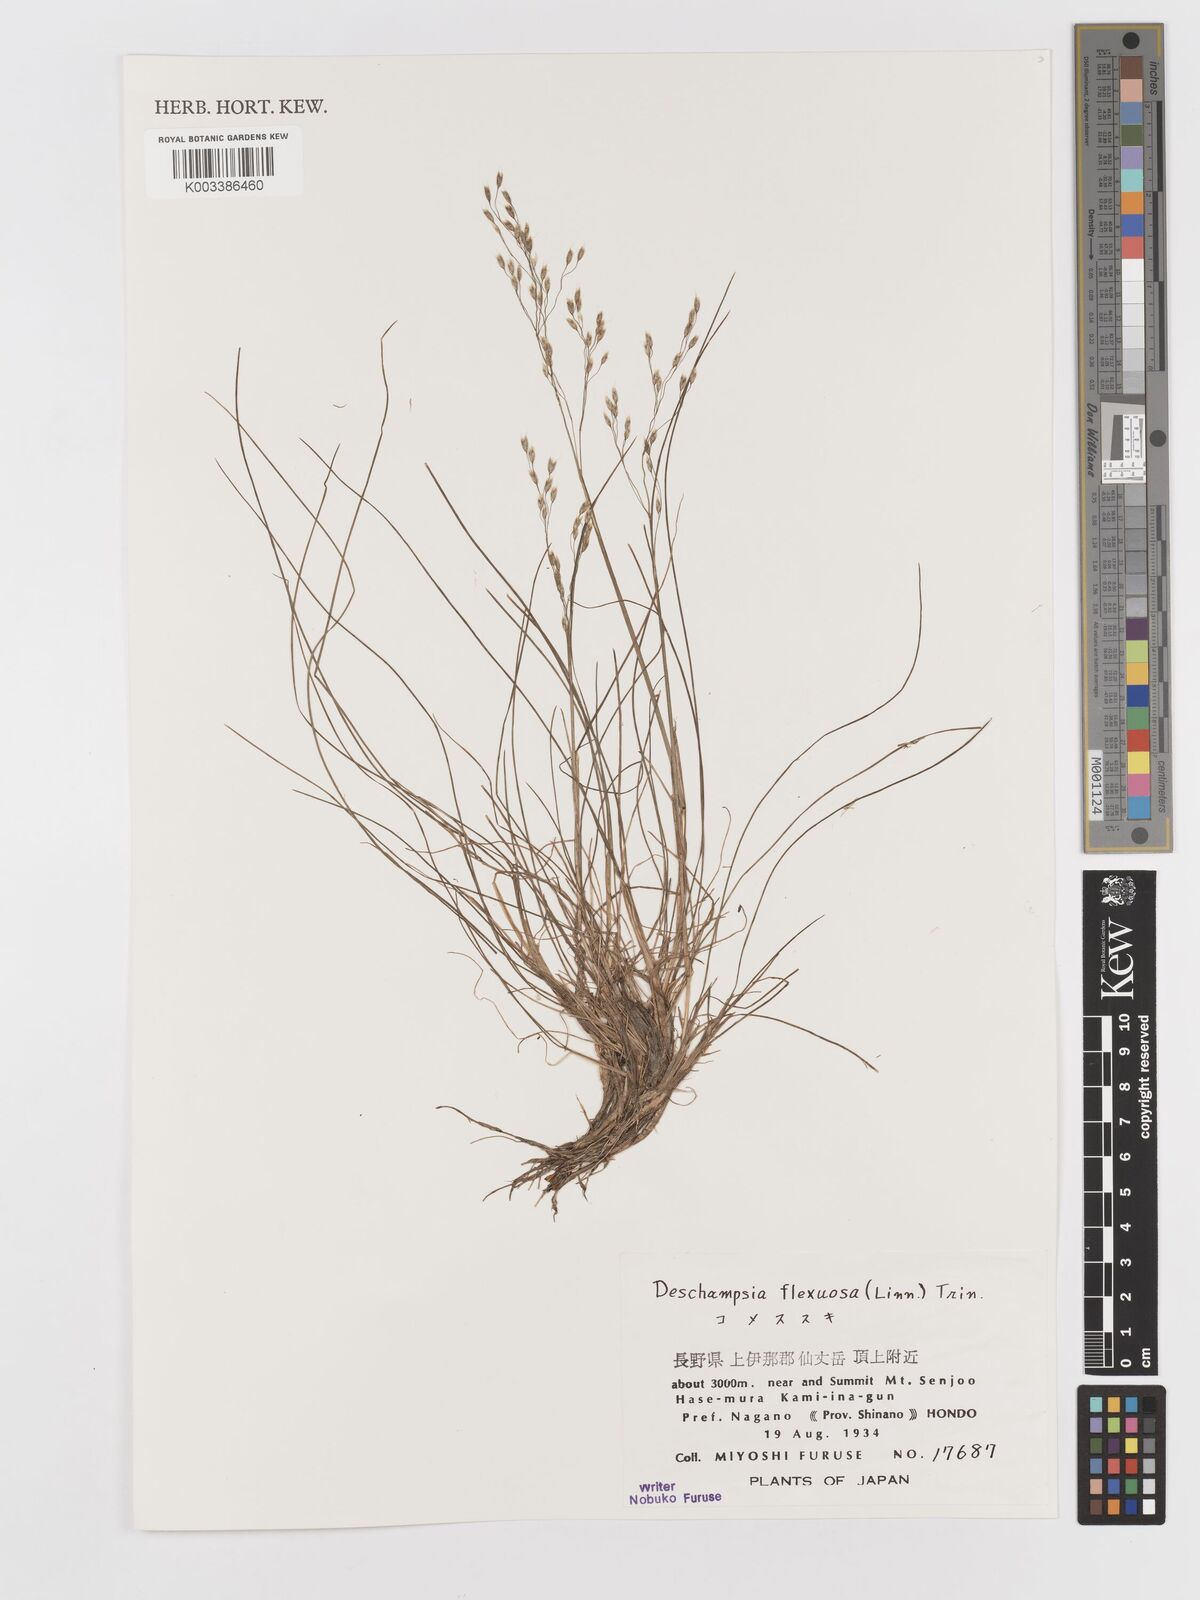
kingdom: Plantae
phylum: Tracheophyta
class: Liliopsida
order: Poales
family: Poaceae
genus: Avenella
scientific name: Avenella flexuosa
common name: Wavy hairgrass
